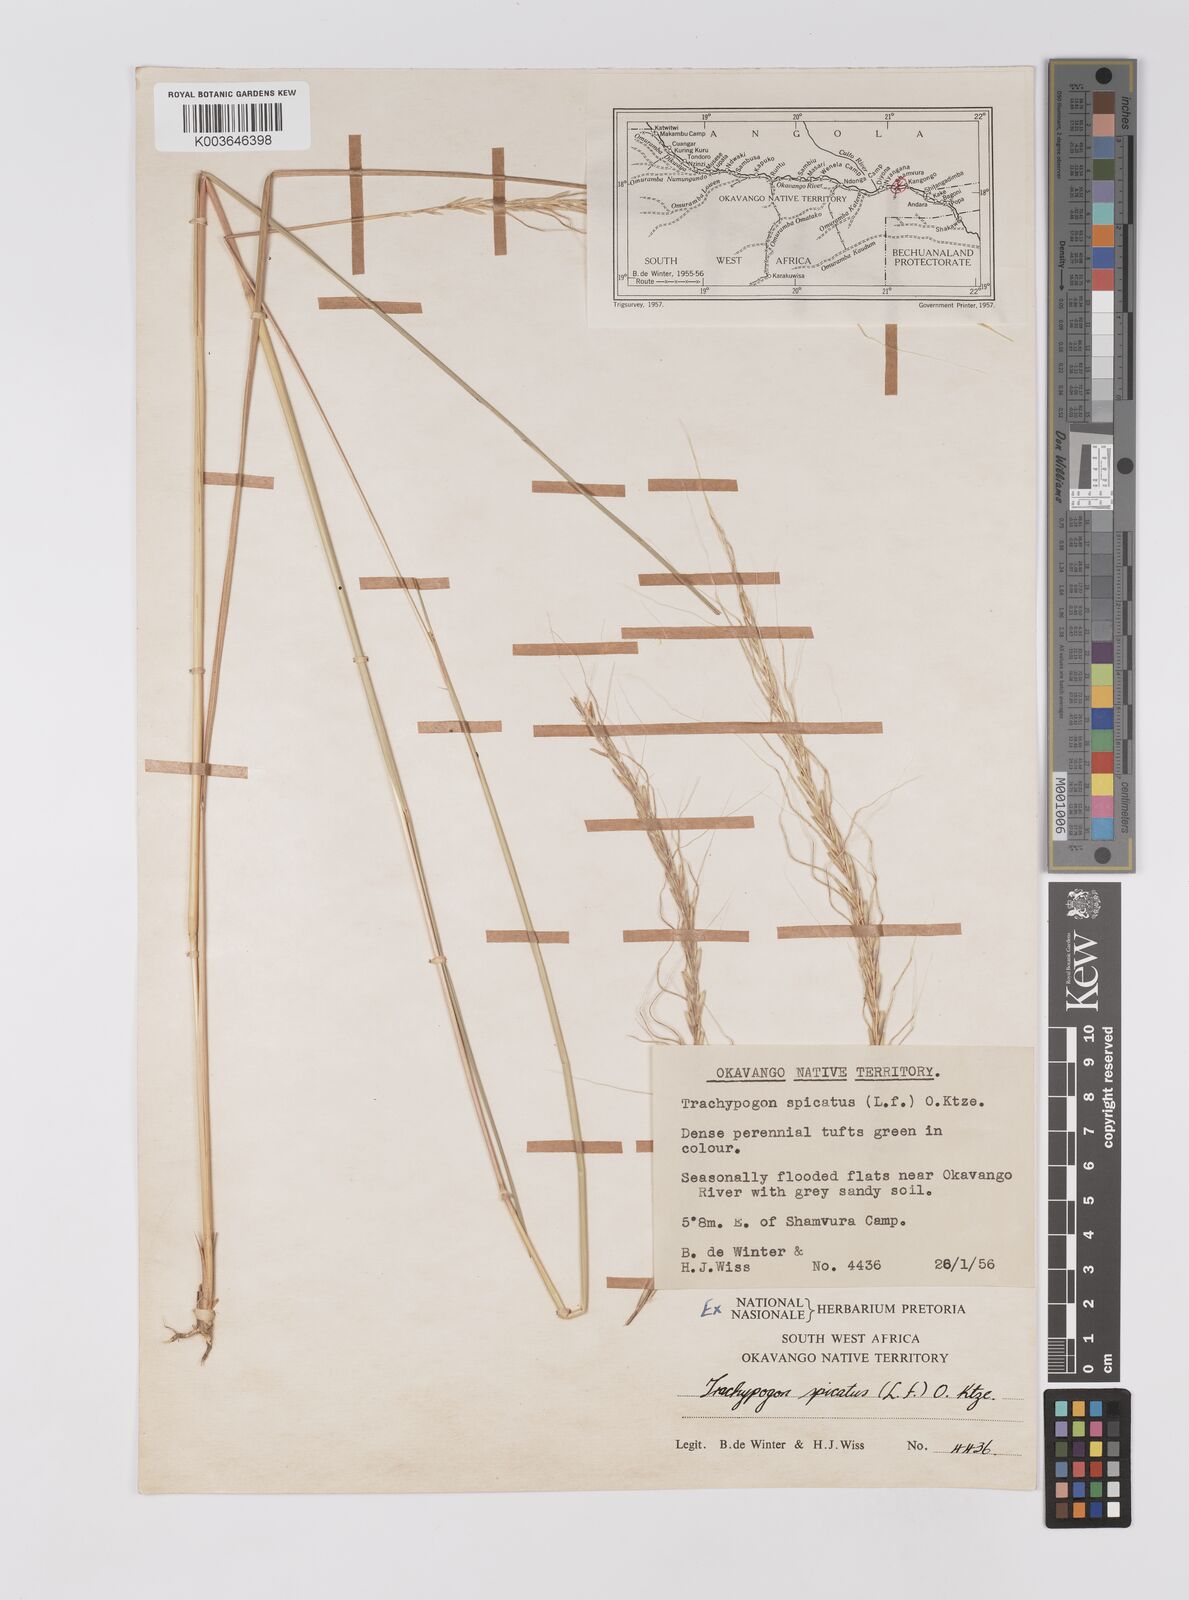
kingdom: Plantae
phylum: Tracheophyta
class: Liliopsida
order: Poales
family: Poaceae
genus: Trachypogon
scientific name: Trachypogon spicatus
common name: Crinkle-awn
